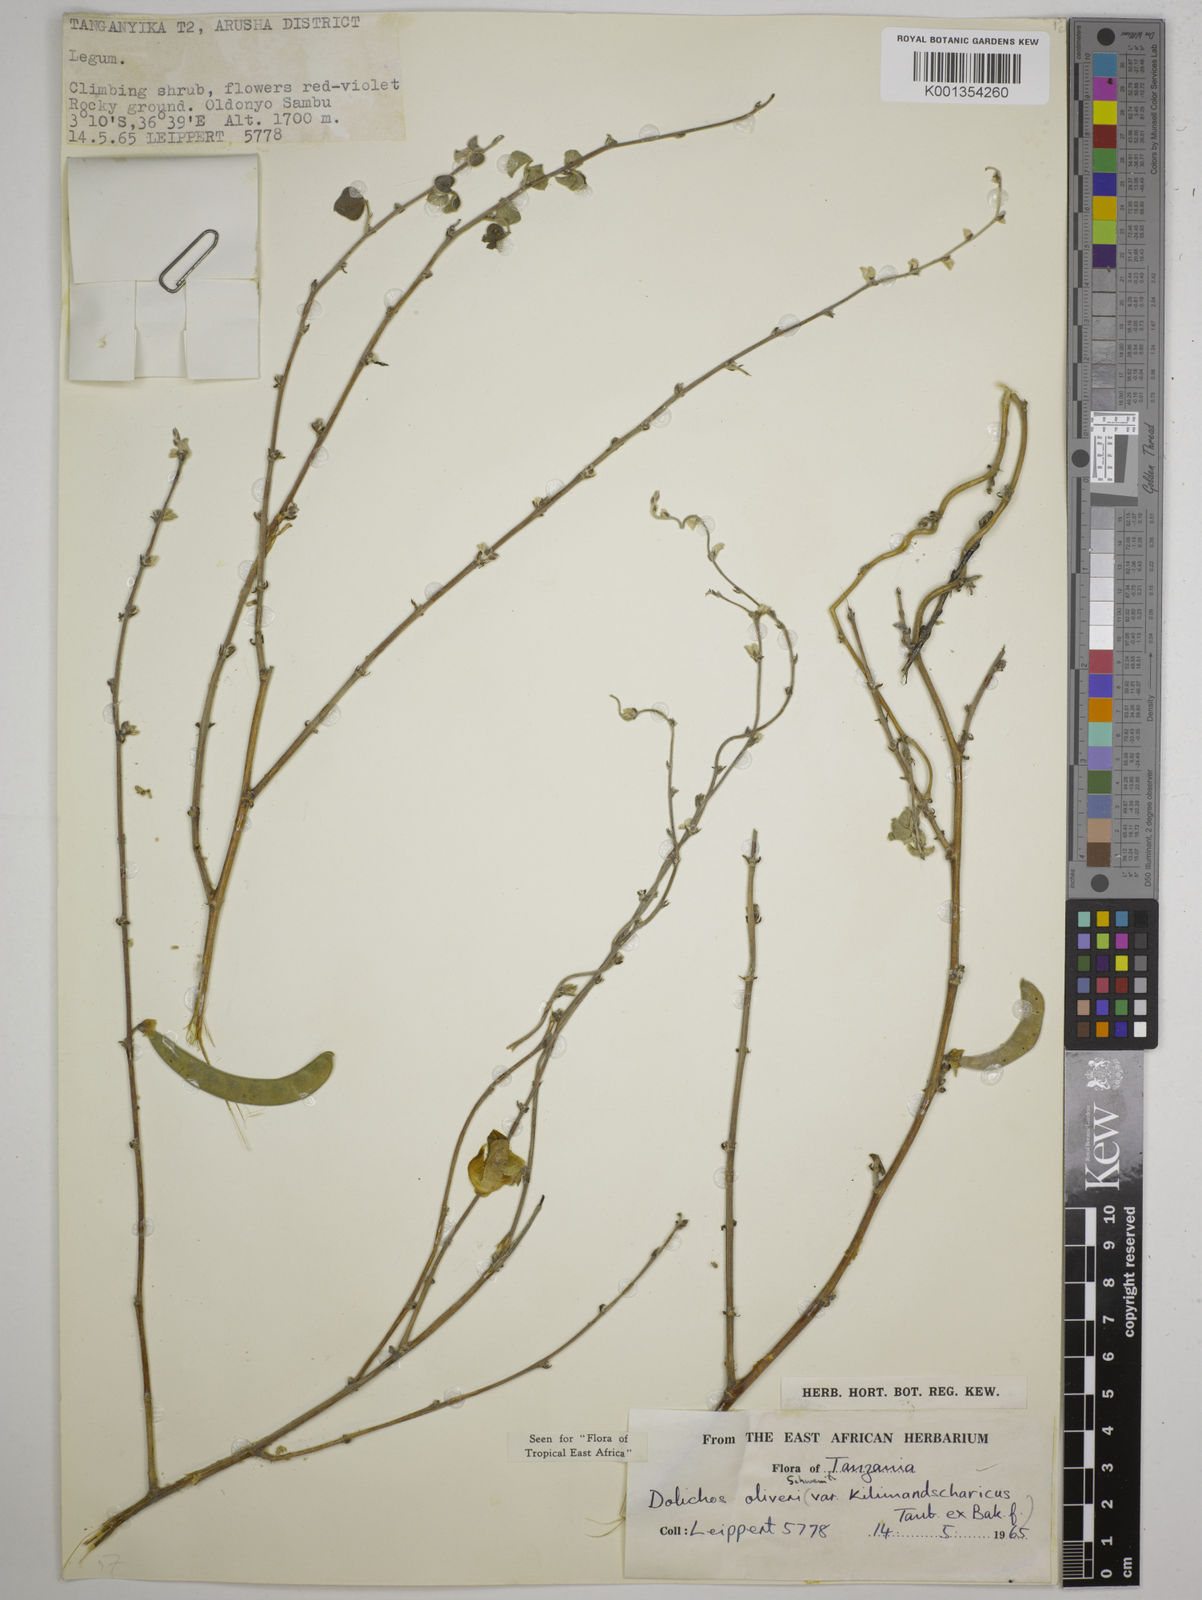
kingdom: Plantae
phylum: Tracheophyta
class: Magnoliopsida
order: Fabales
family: Fabaceae
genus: Dolichos
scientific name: Dolichos
